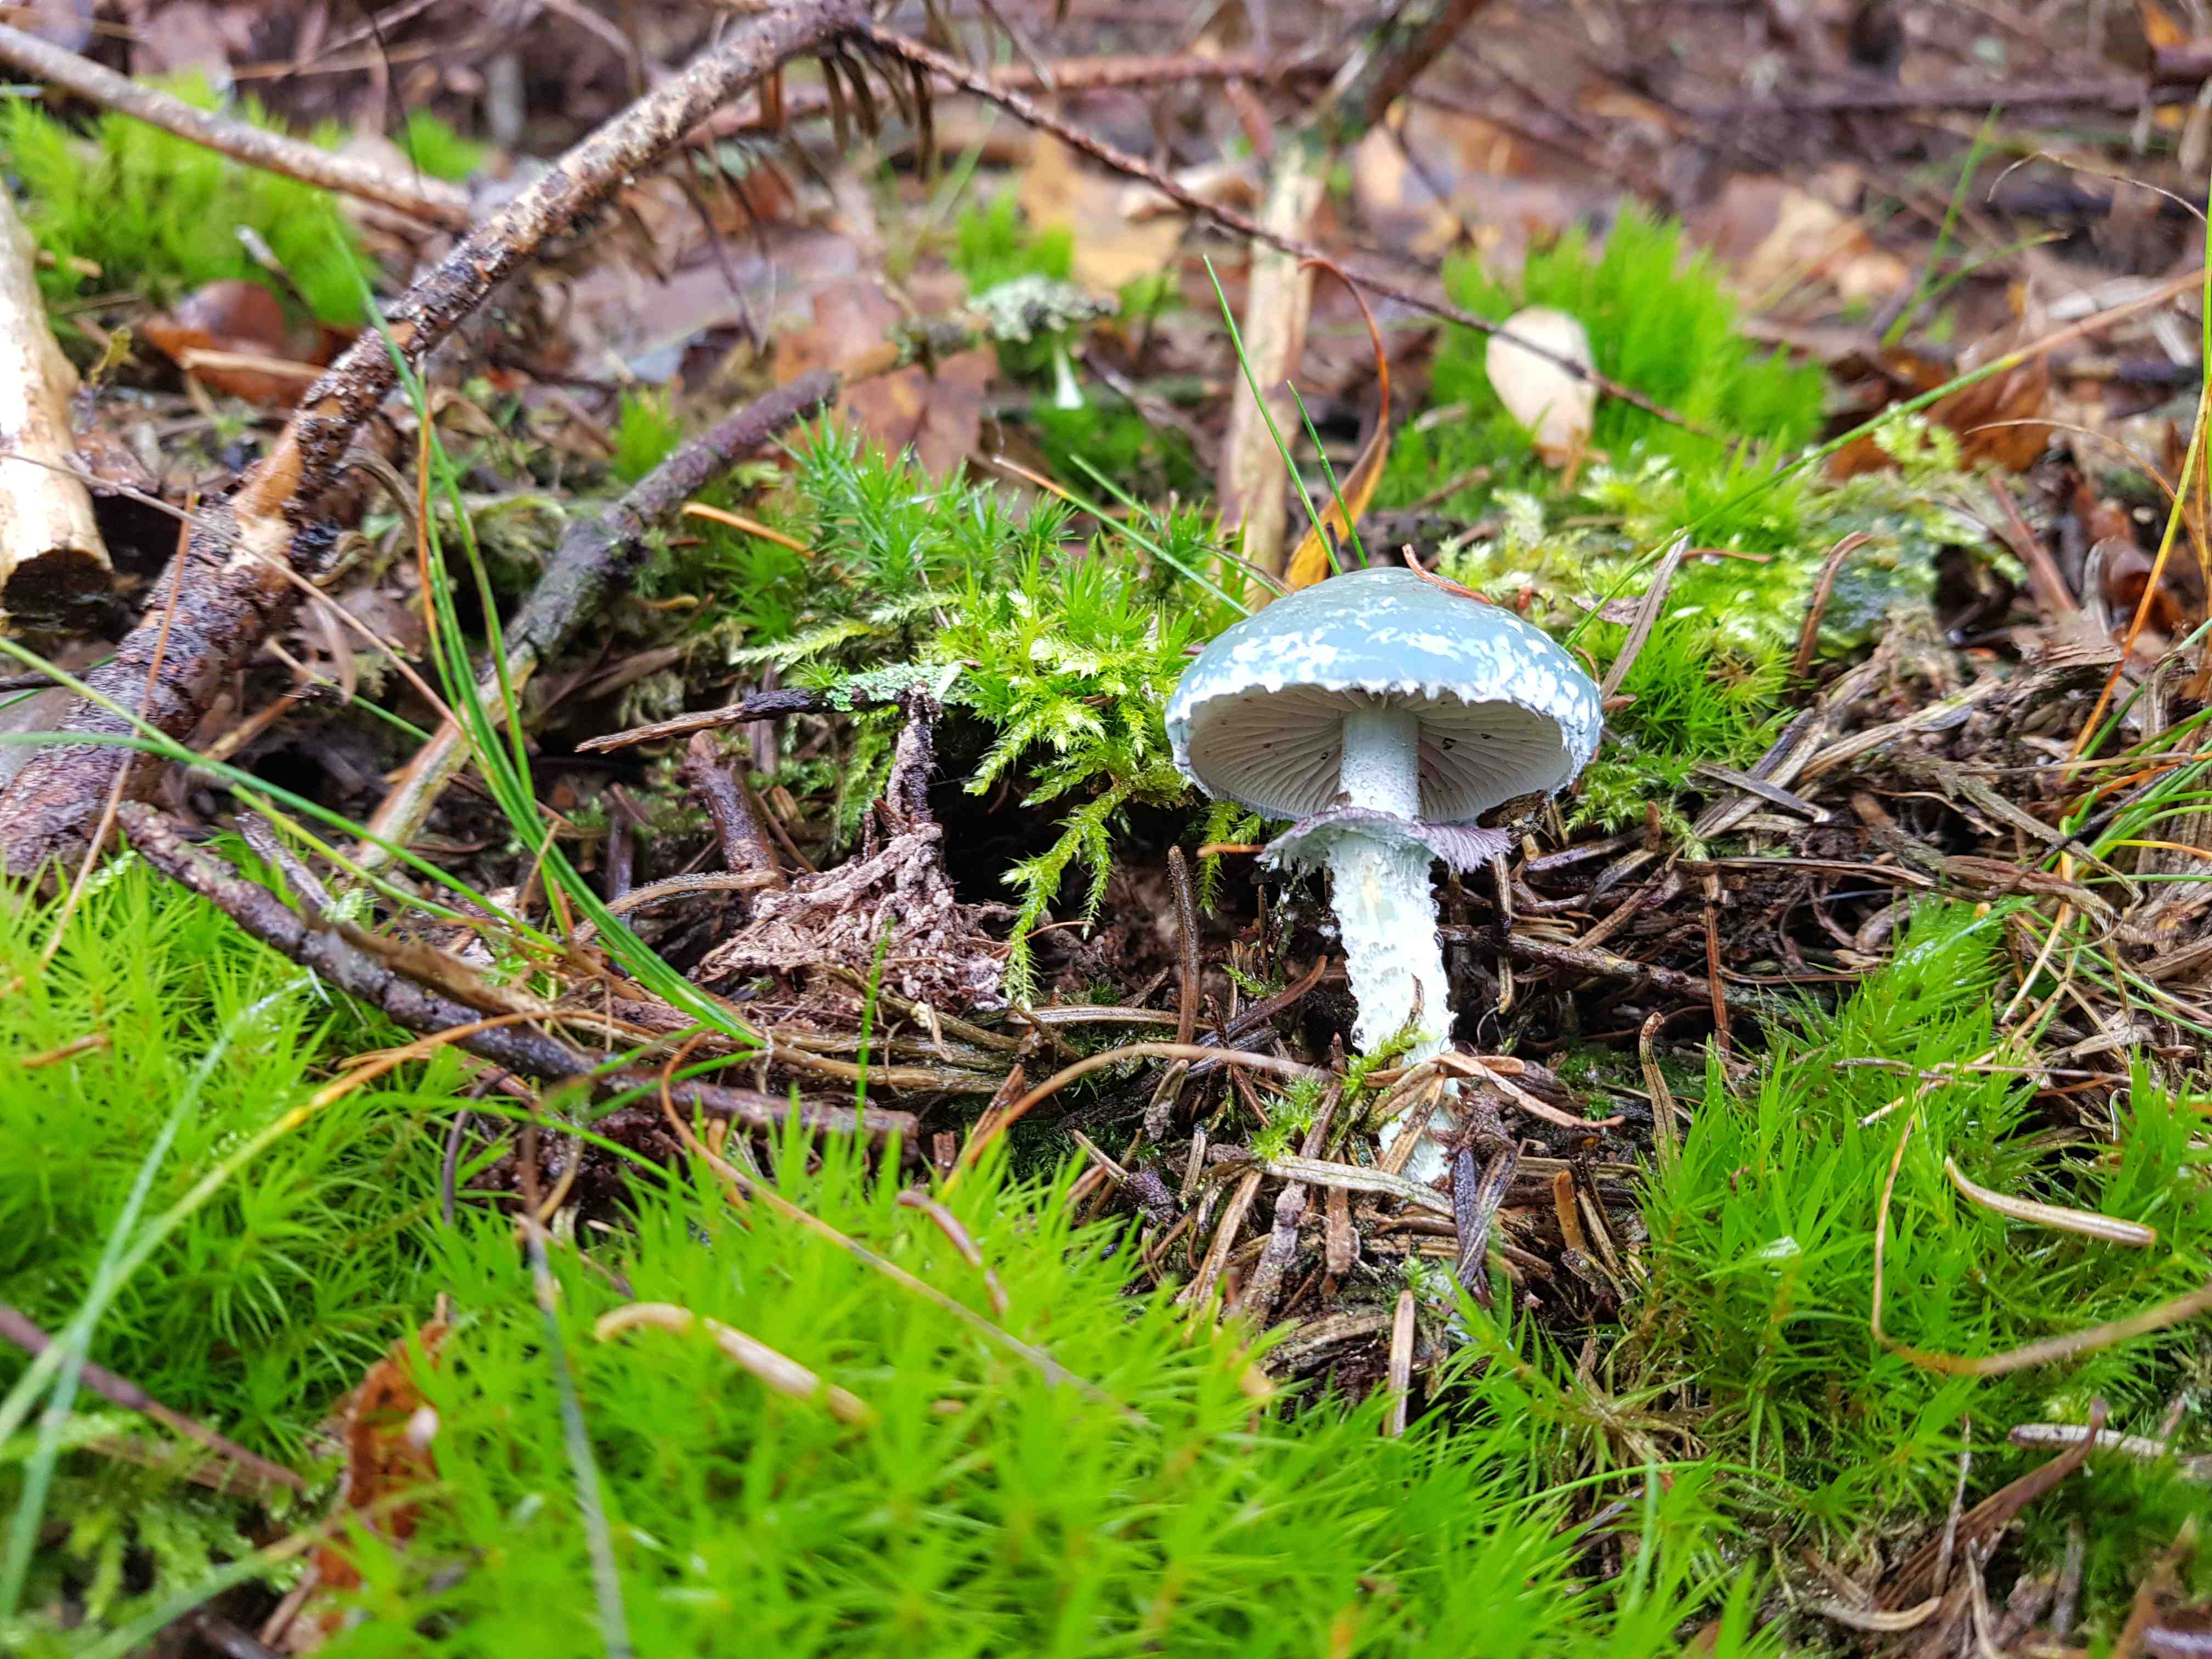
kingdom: Fungi
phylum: Basidiomycota
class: Agaricomycetes
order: Agaricales
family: Strophariaceae
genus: Stropharia
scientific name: Stropharia aeruginosa
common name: spanskgrøn bredblad
